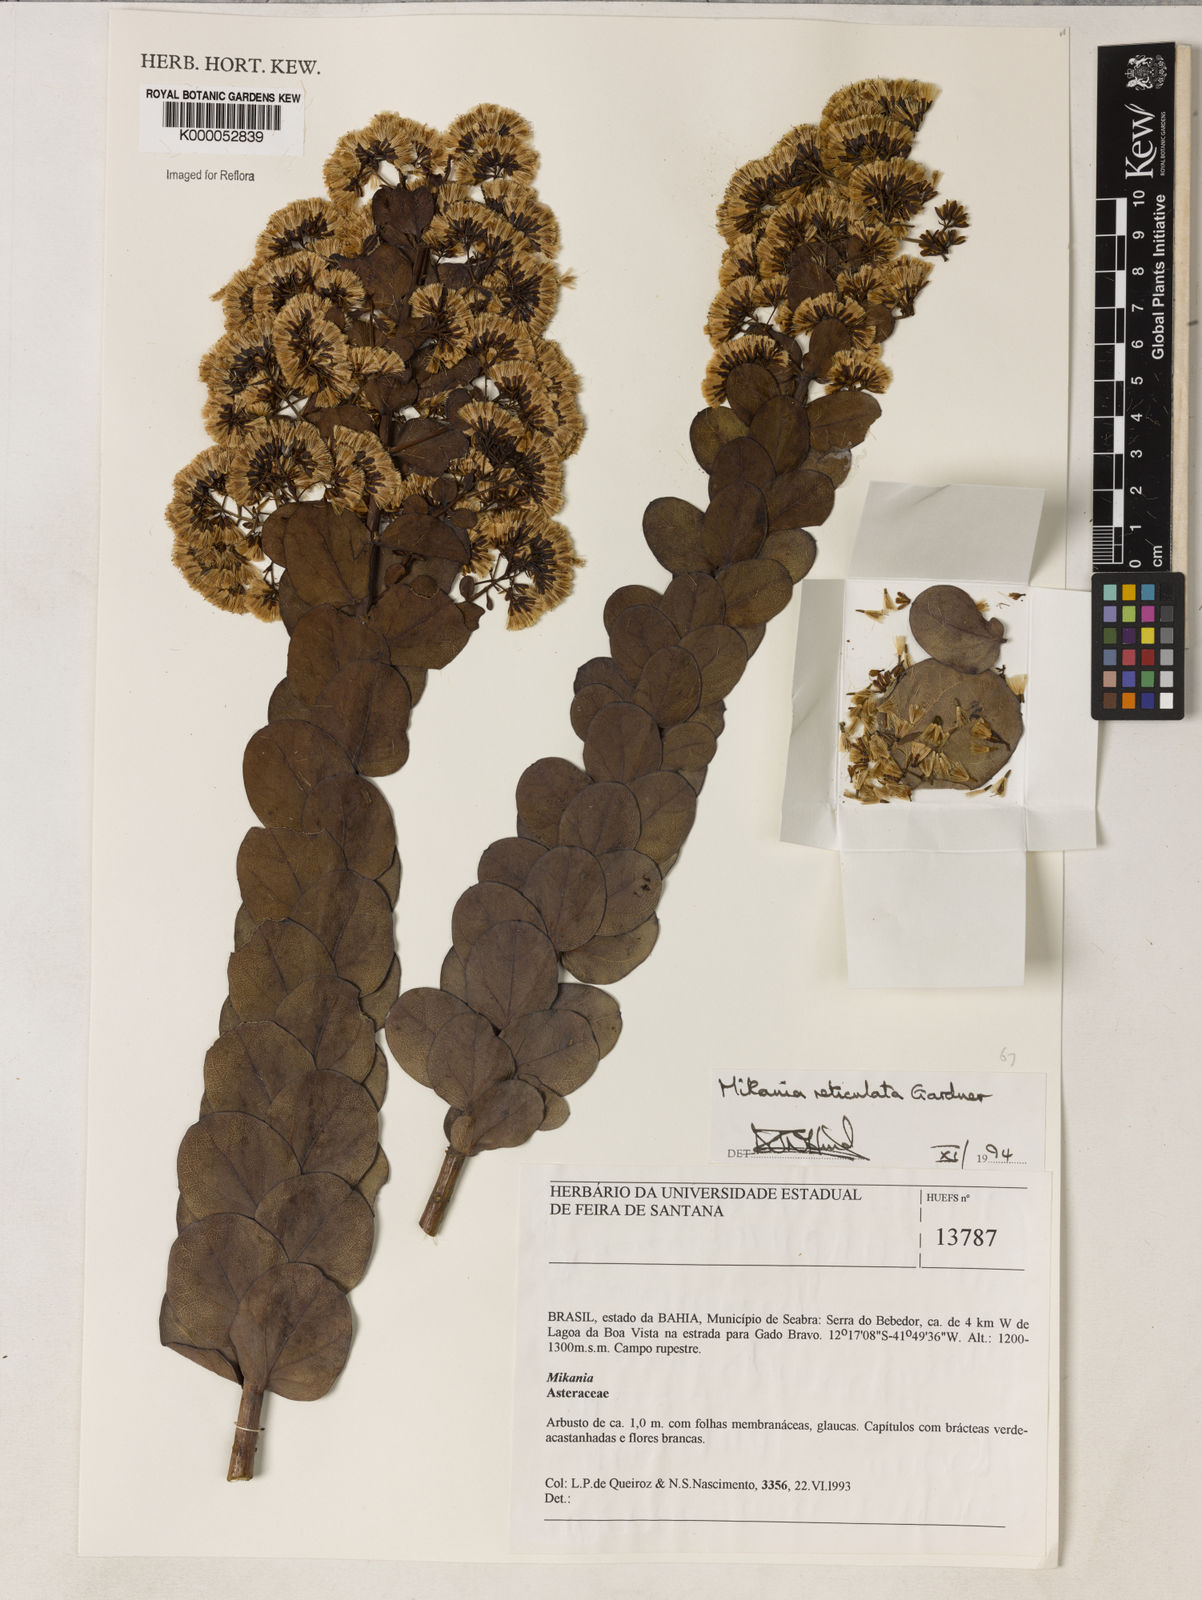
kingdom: Plantae
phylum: Tracheophyta
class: Magnoliopsida
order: Asterales
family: Asteraceae
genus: Mikania
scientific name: Mikania reticulata
